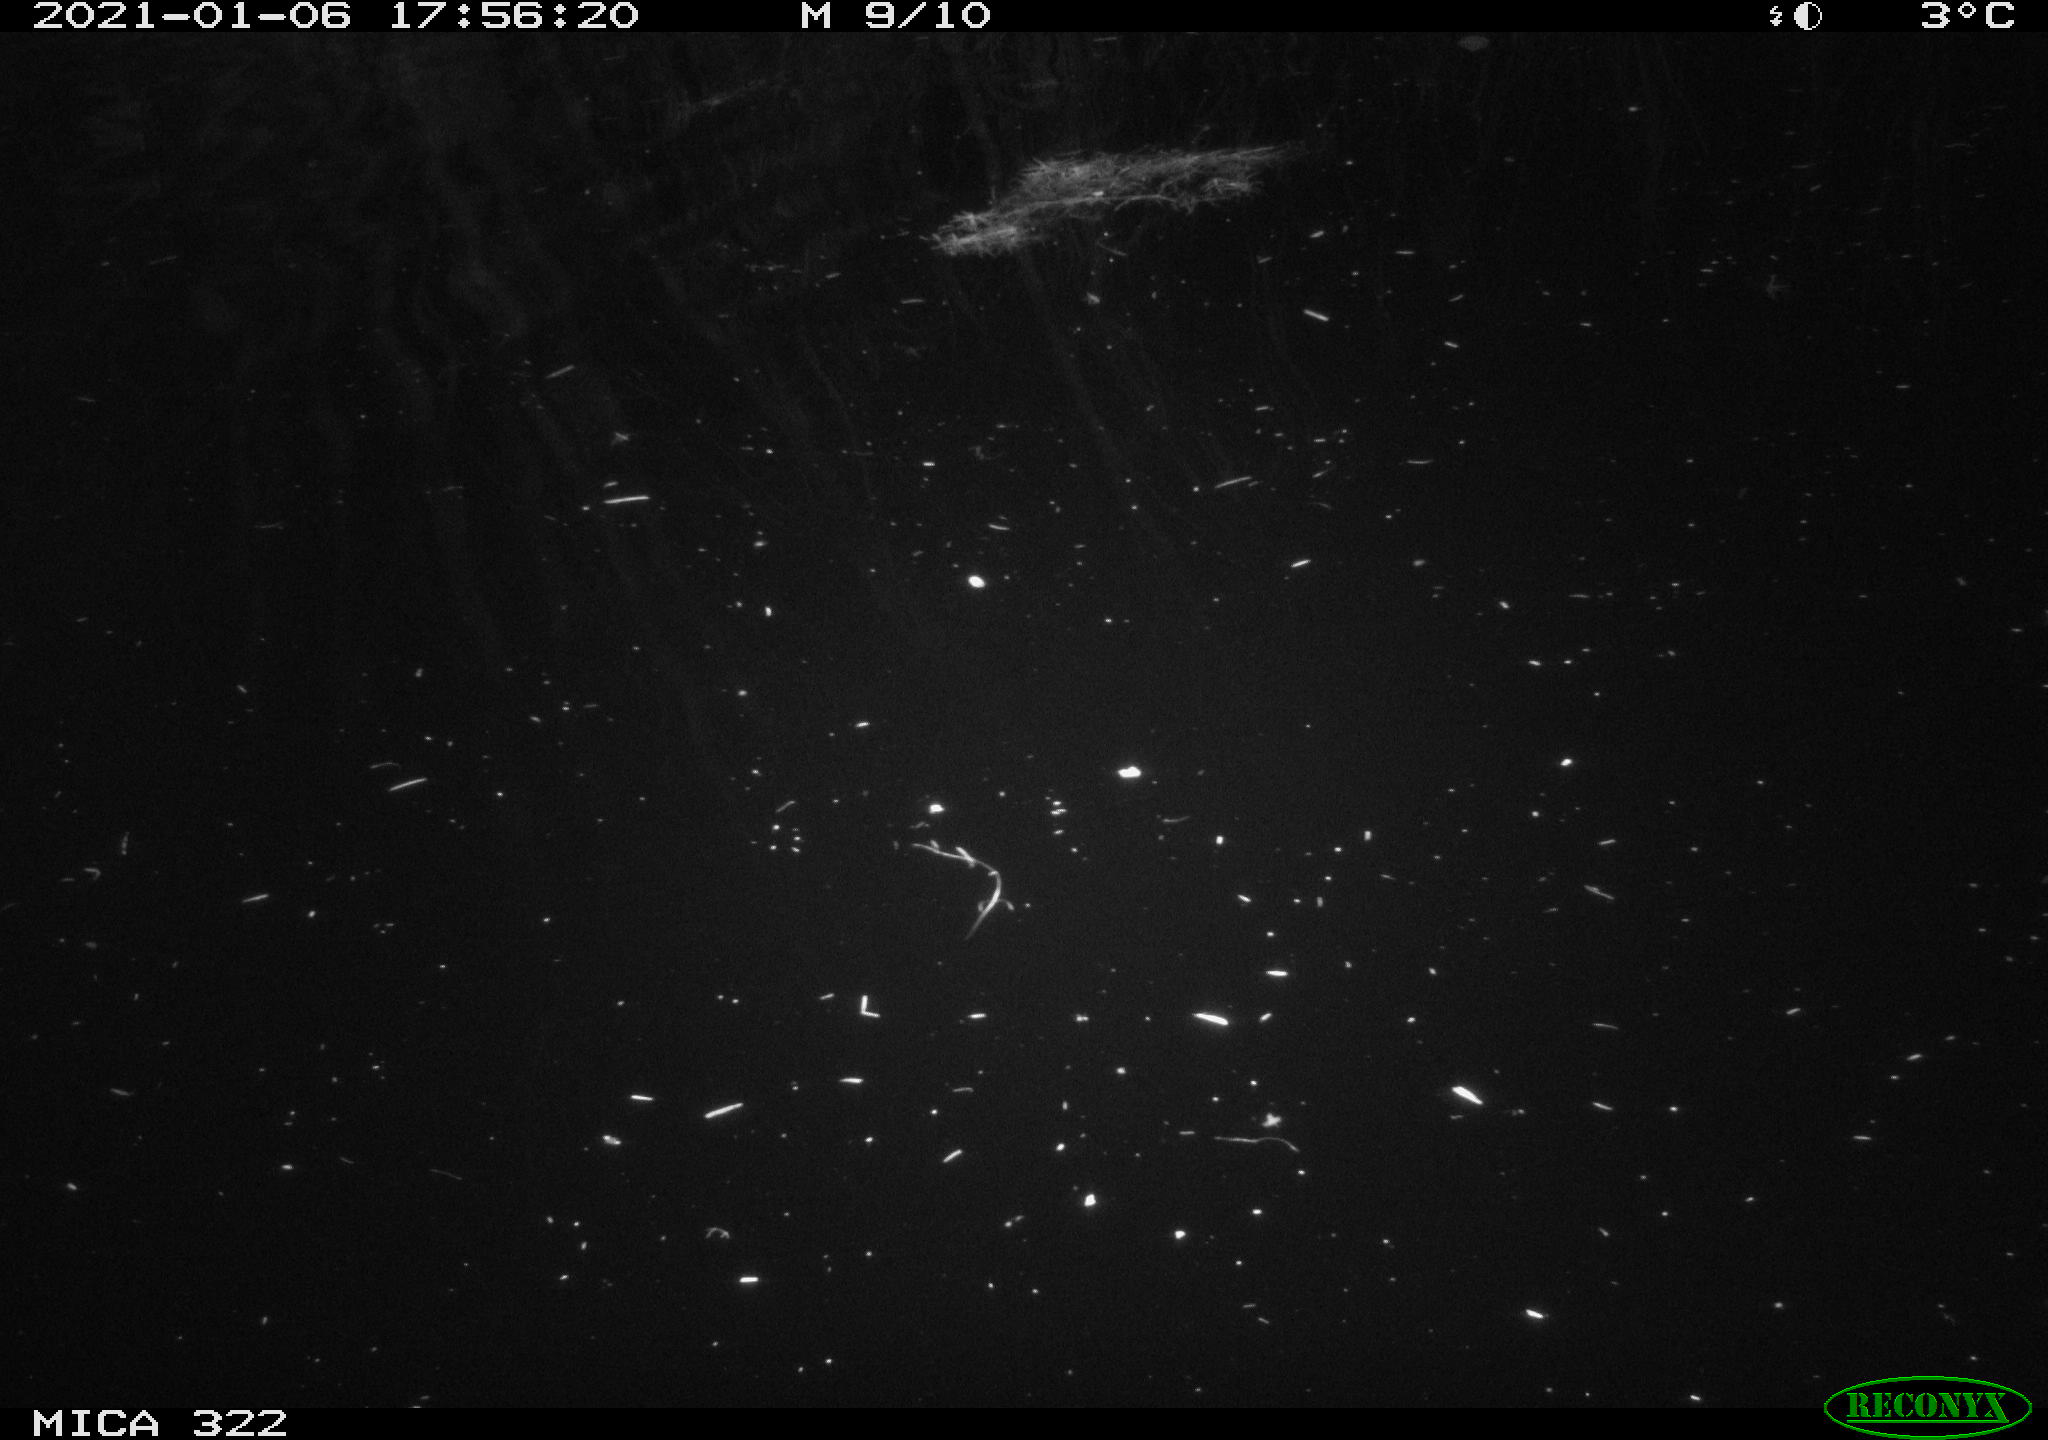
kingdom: Animalia
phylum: Chordata
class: Aves
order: Anseriformes
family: Anatidae
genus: Mareca
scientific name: Mareca strepera
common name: Gadwall
